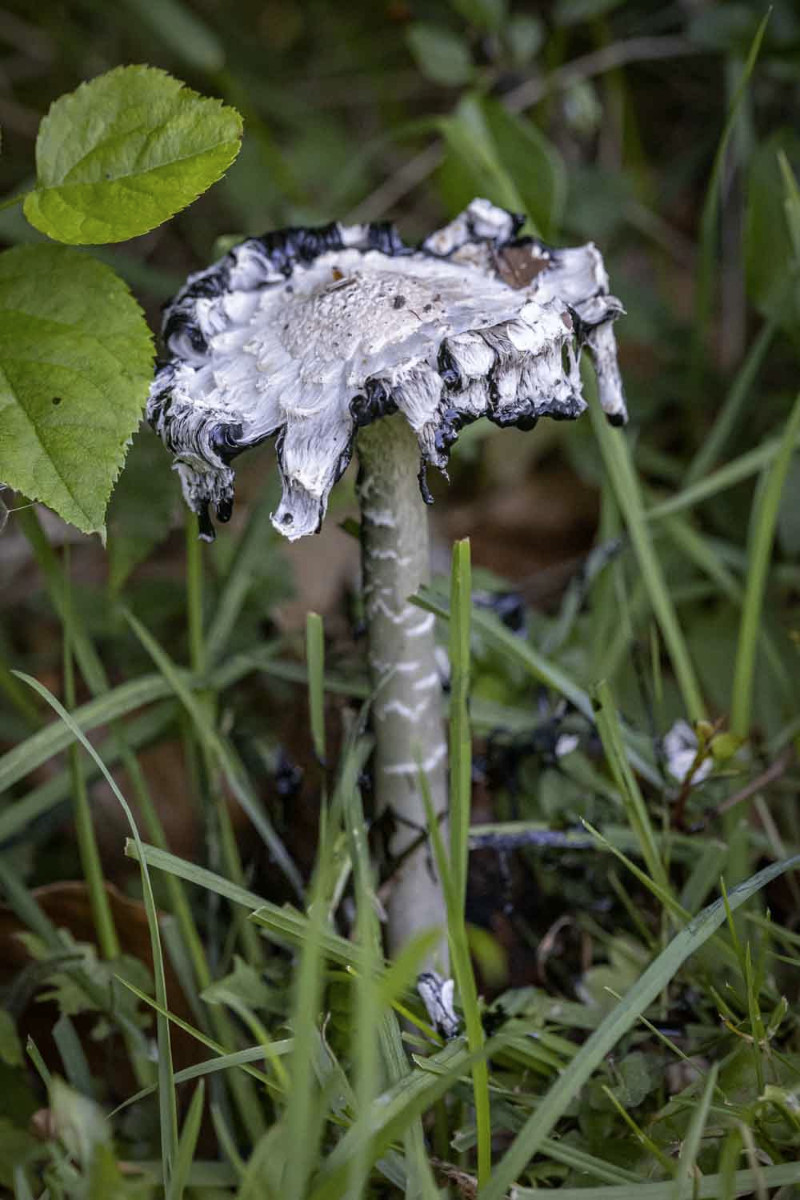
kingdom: Fungi
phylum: Basidiomycota
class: Agaricomycetes
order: Agaricales
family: Agaricaceae
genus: Coprinus
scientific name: Coprinus comatus
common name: stor parykhat
